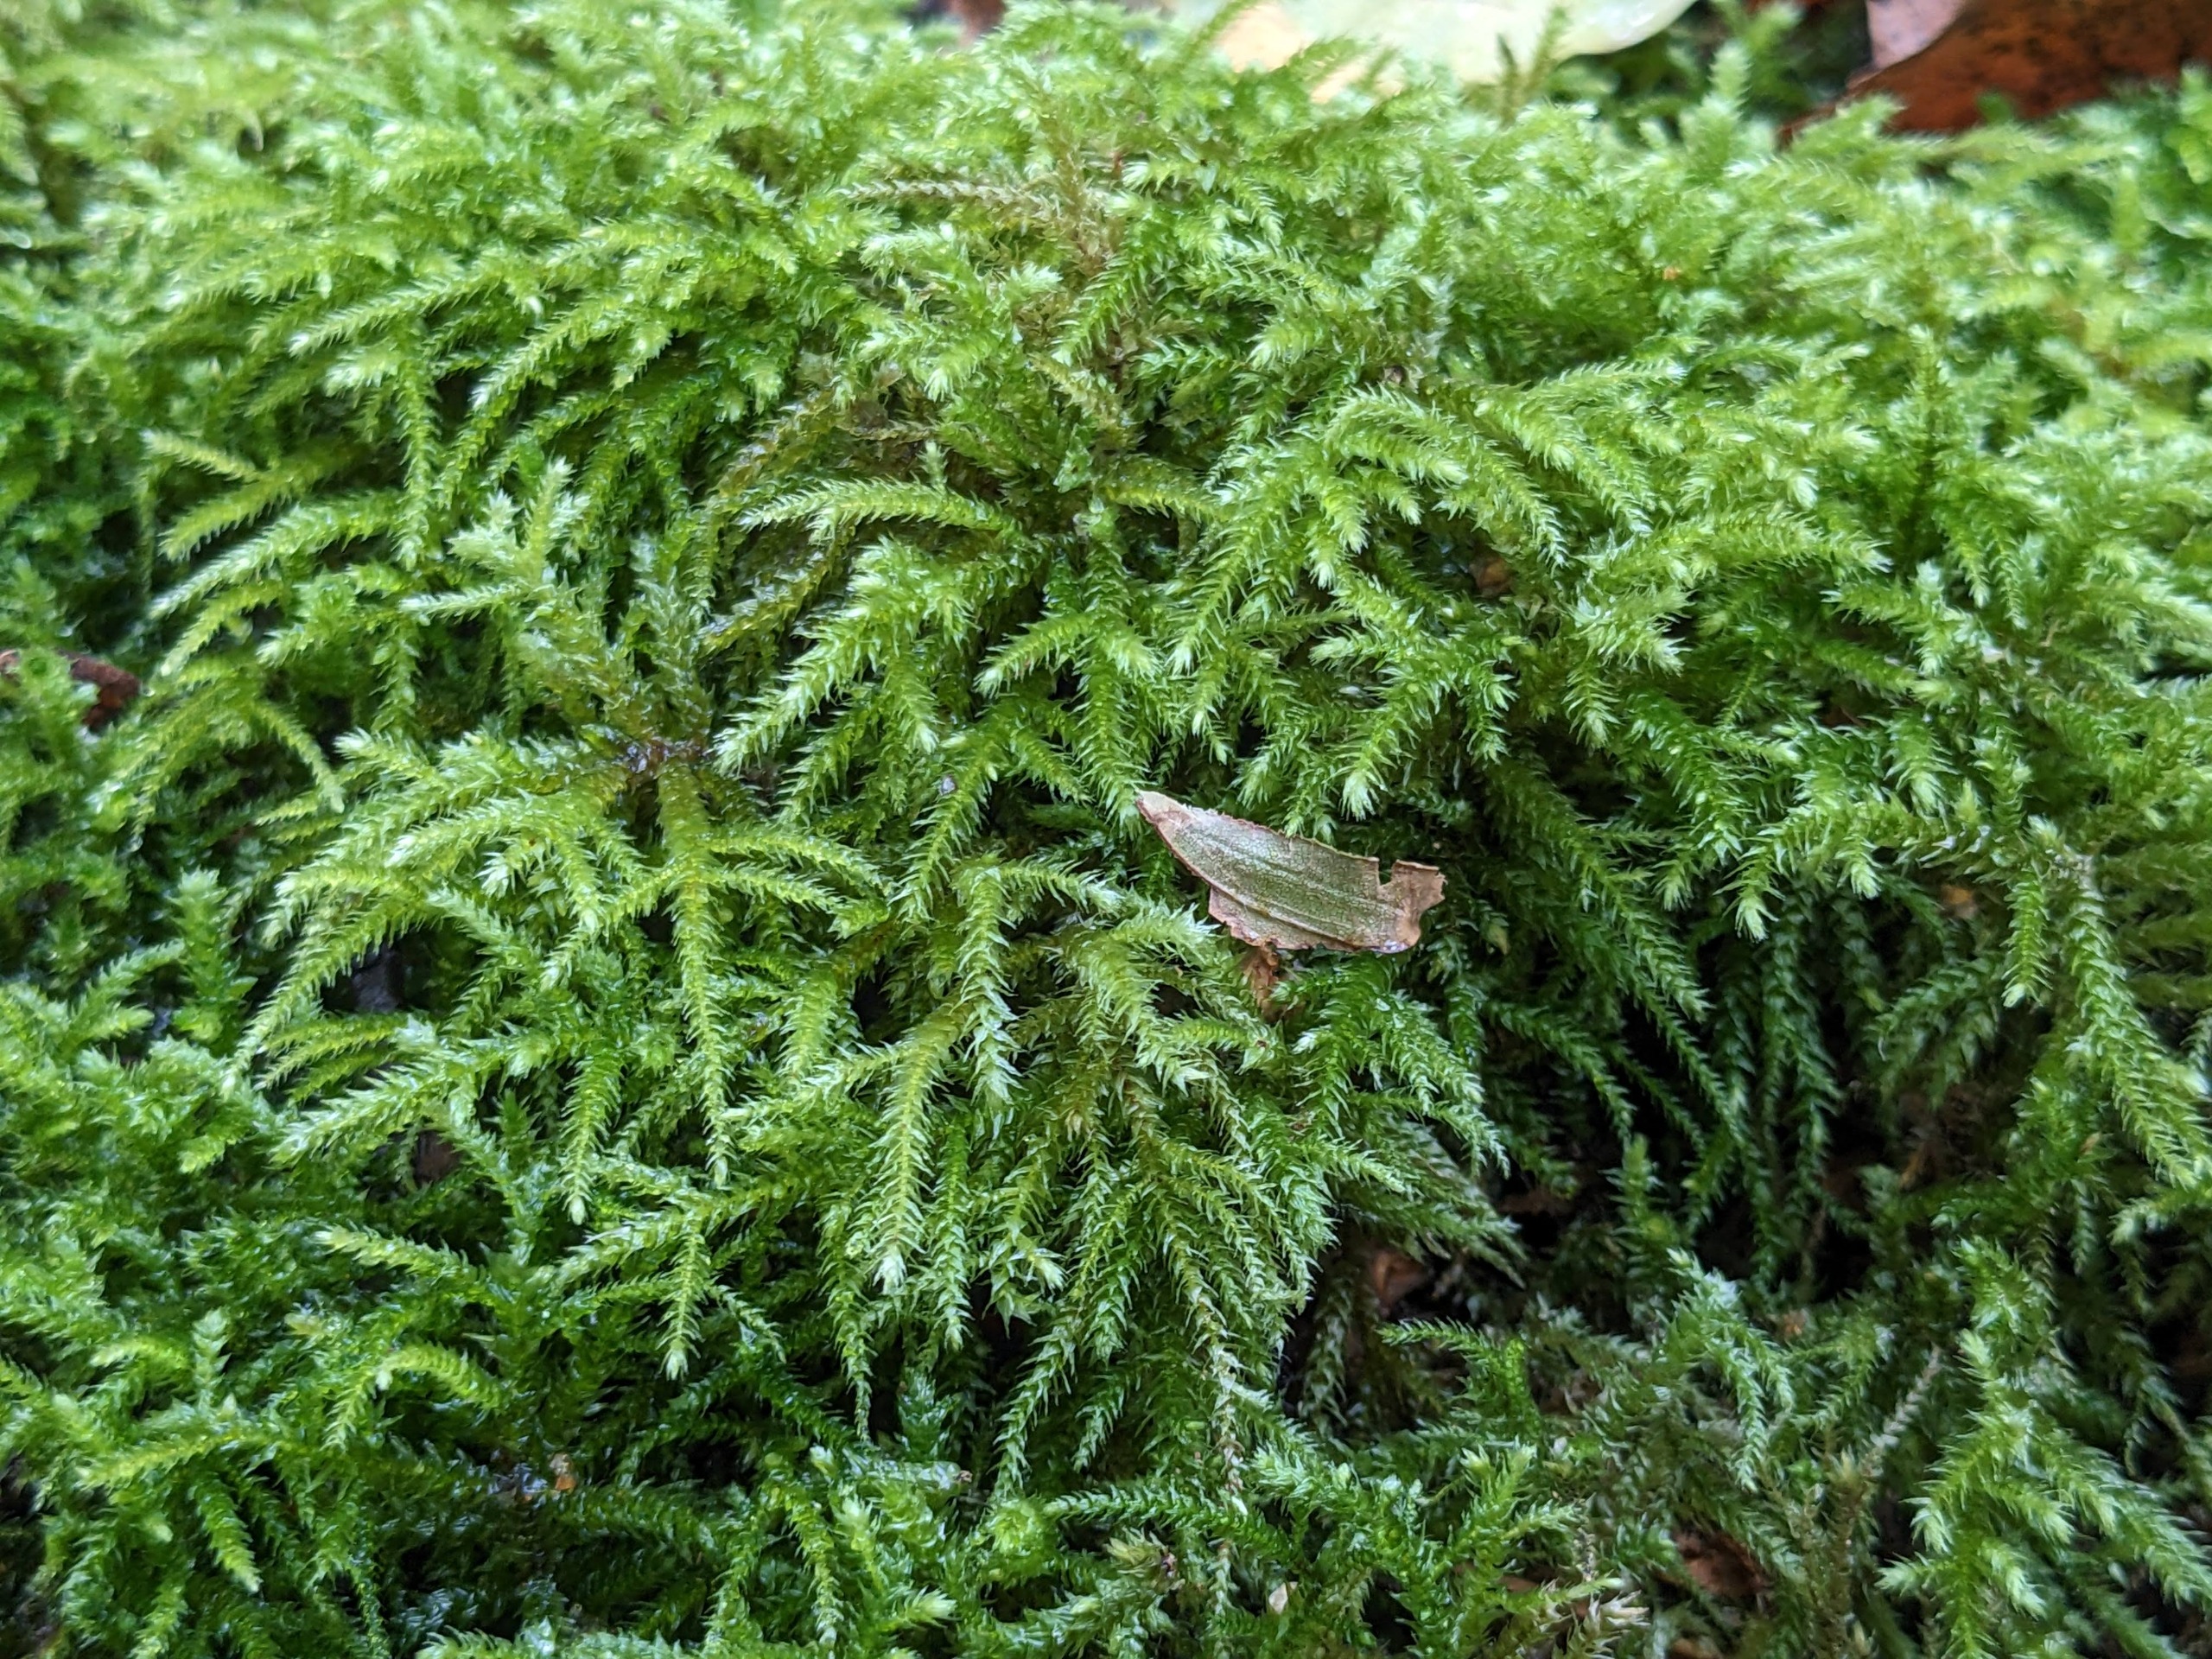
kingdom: Plantae
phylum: Bryophyta
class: Bryopsida
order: Hypnales
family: Brachytheciaceae
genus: Eurhynchium
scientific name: Eurhynchium striatum
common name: Stribet næbmos
